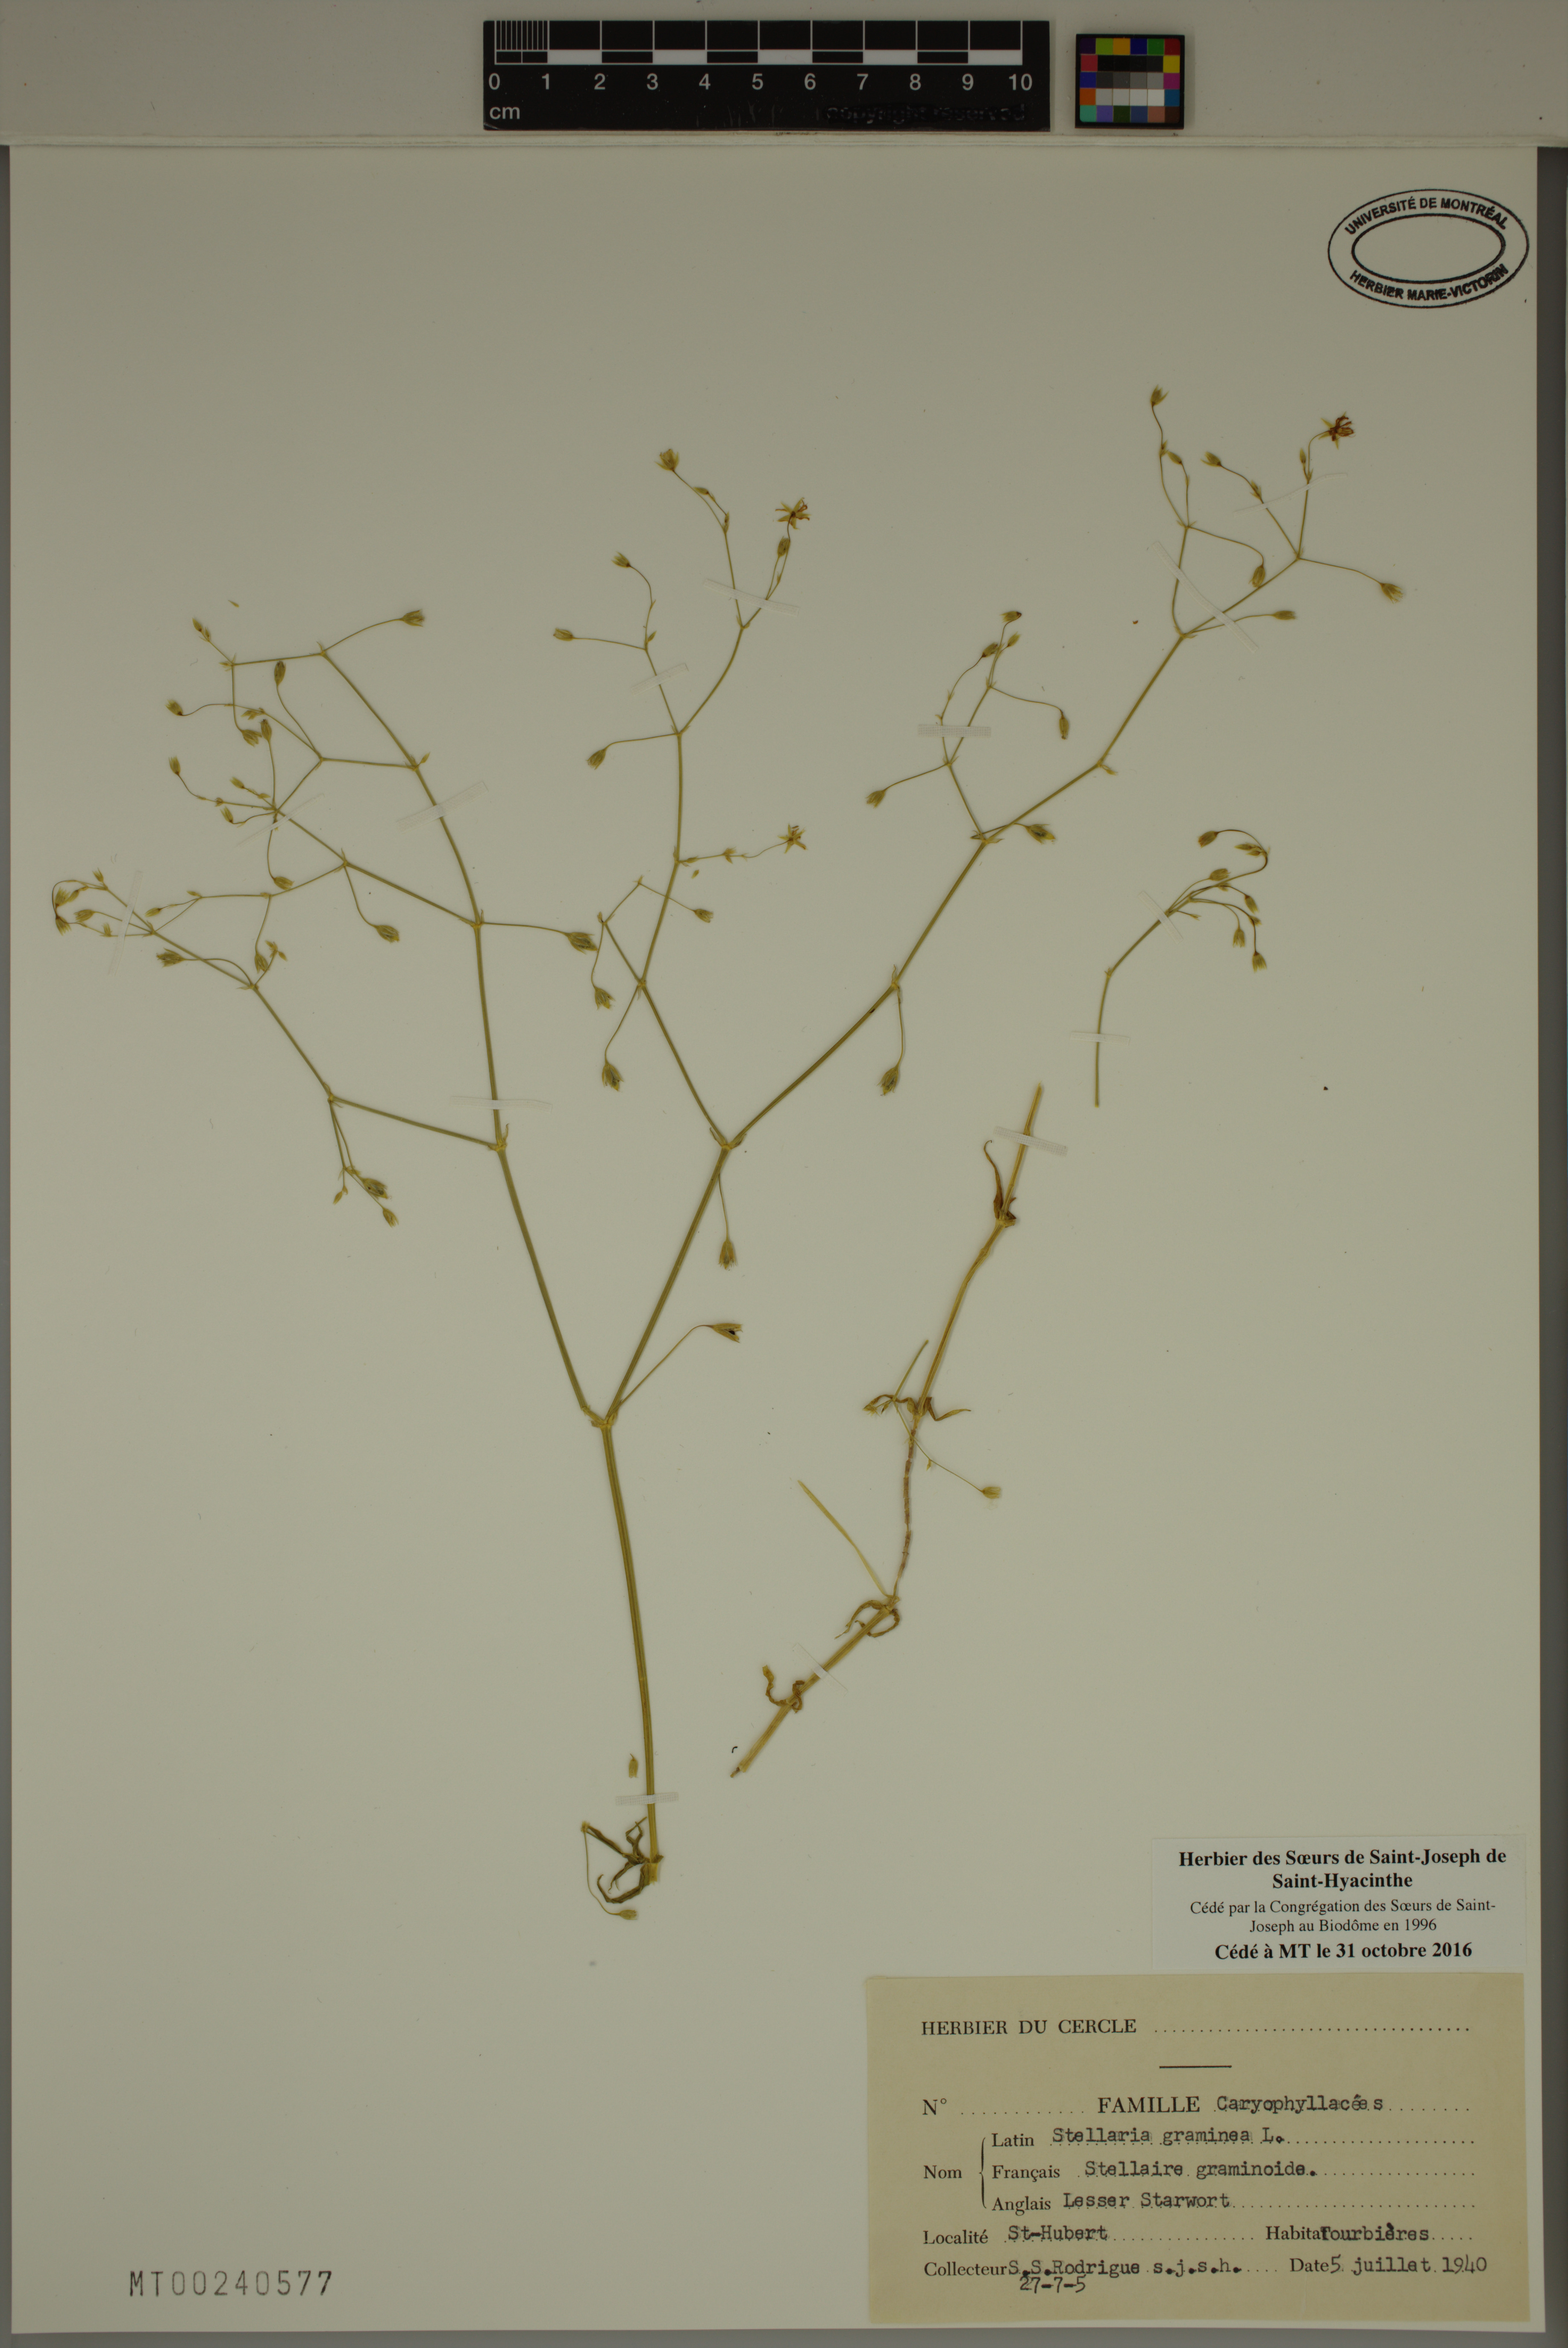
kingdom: Plantae
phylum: Tracheophyta
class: Magnoliopsida
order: Caryophyllales
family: Caryophyllaceae
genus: Stellaria
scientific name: Stellaria graminea
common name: Grass-like starwort
